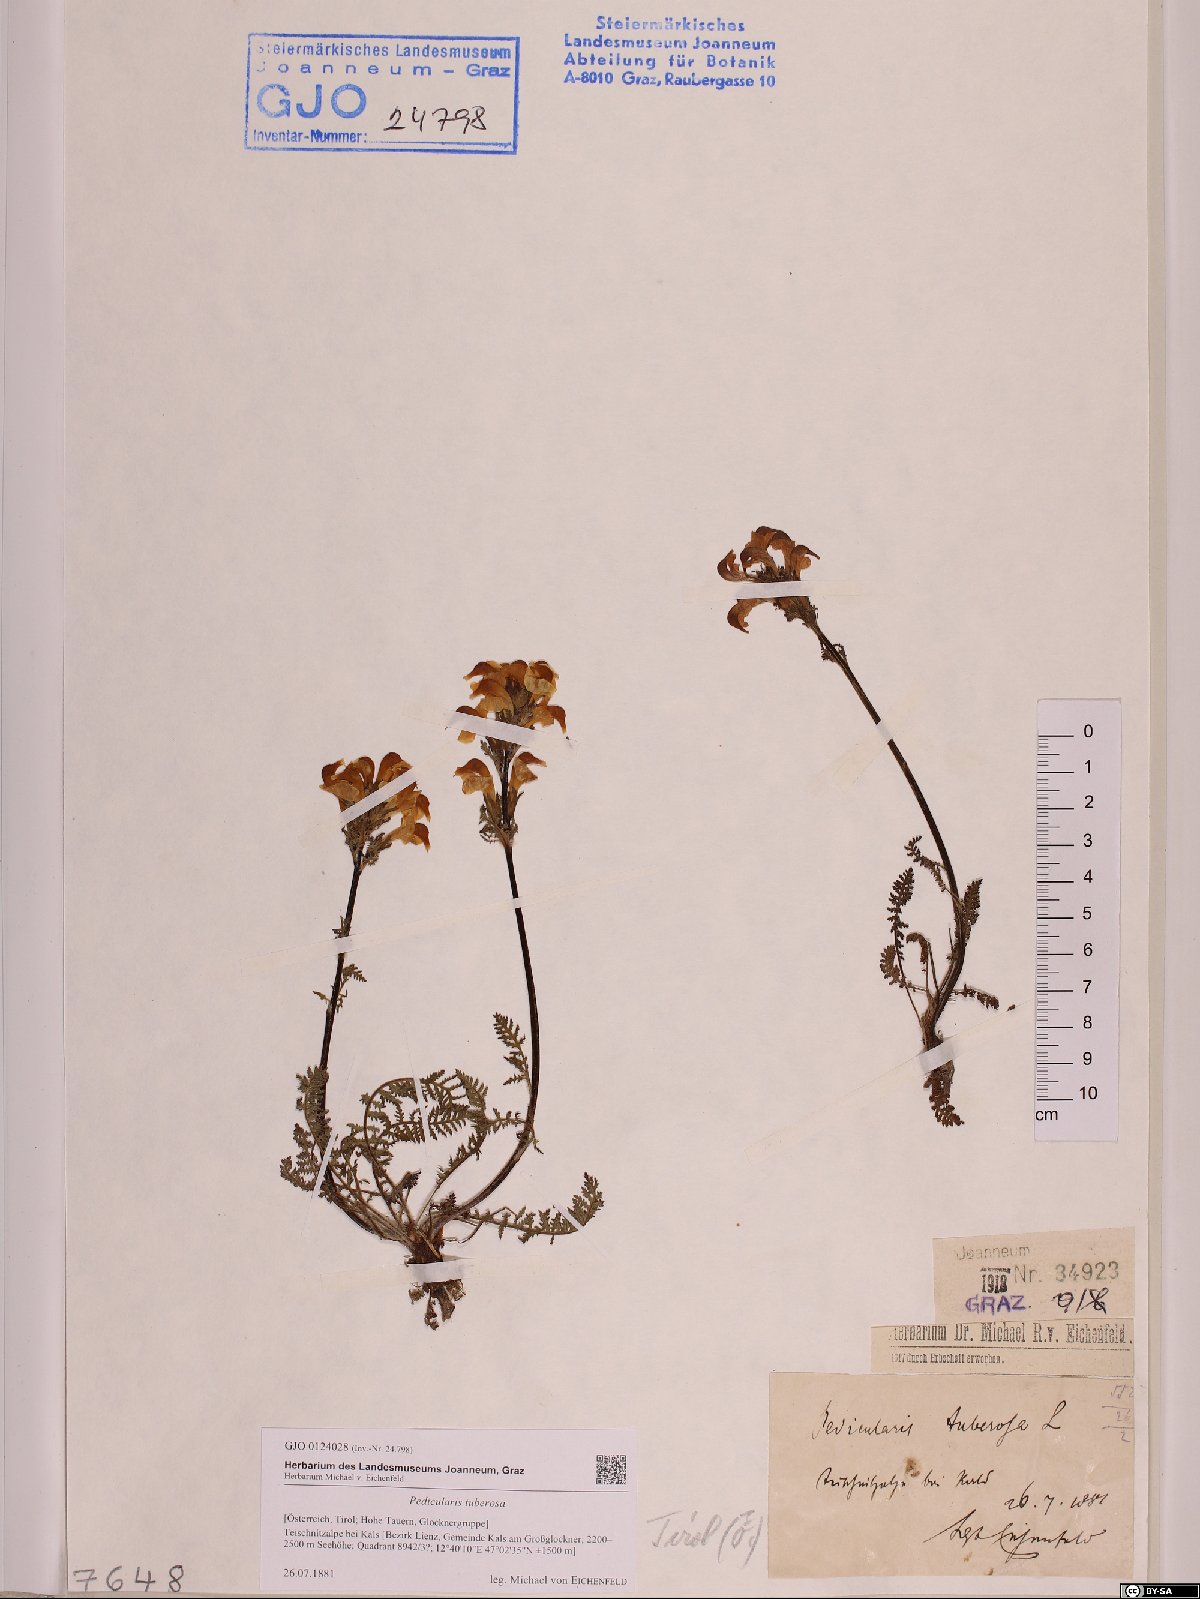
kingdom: Plantae
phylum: Tracheophyta
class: Magnoliopsida
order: Lamiales
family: Orobanchaceae
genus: Pedicularis
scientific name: Pedicularis tuberosa
